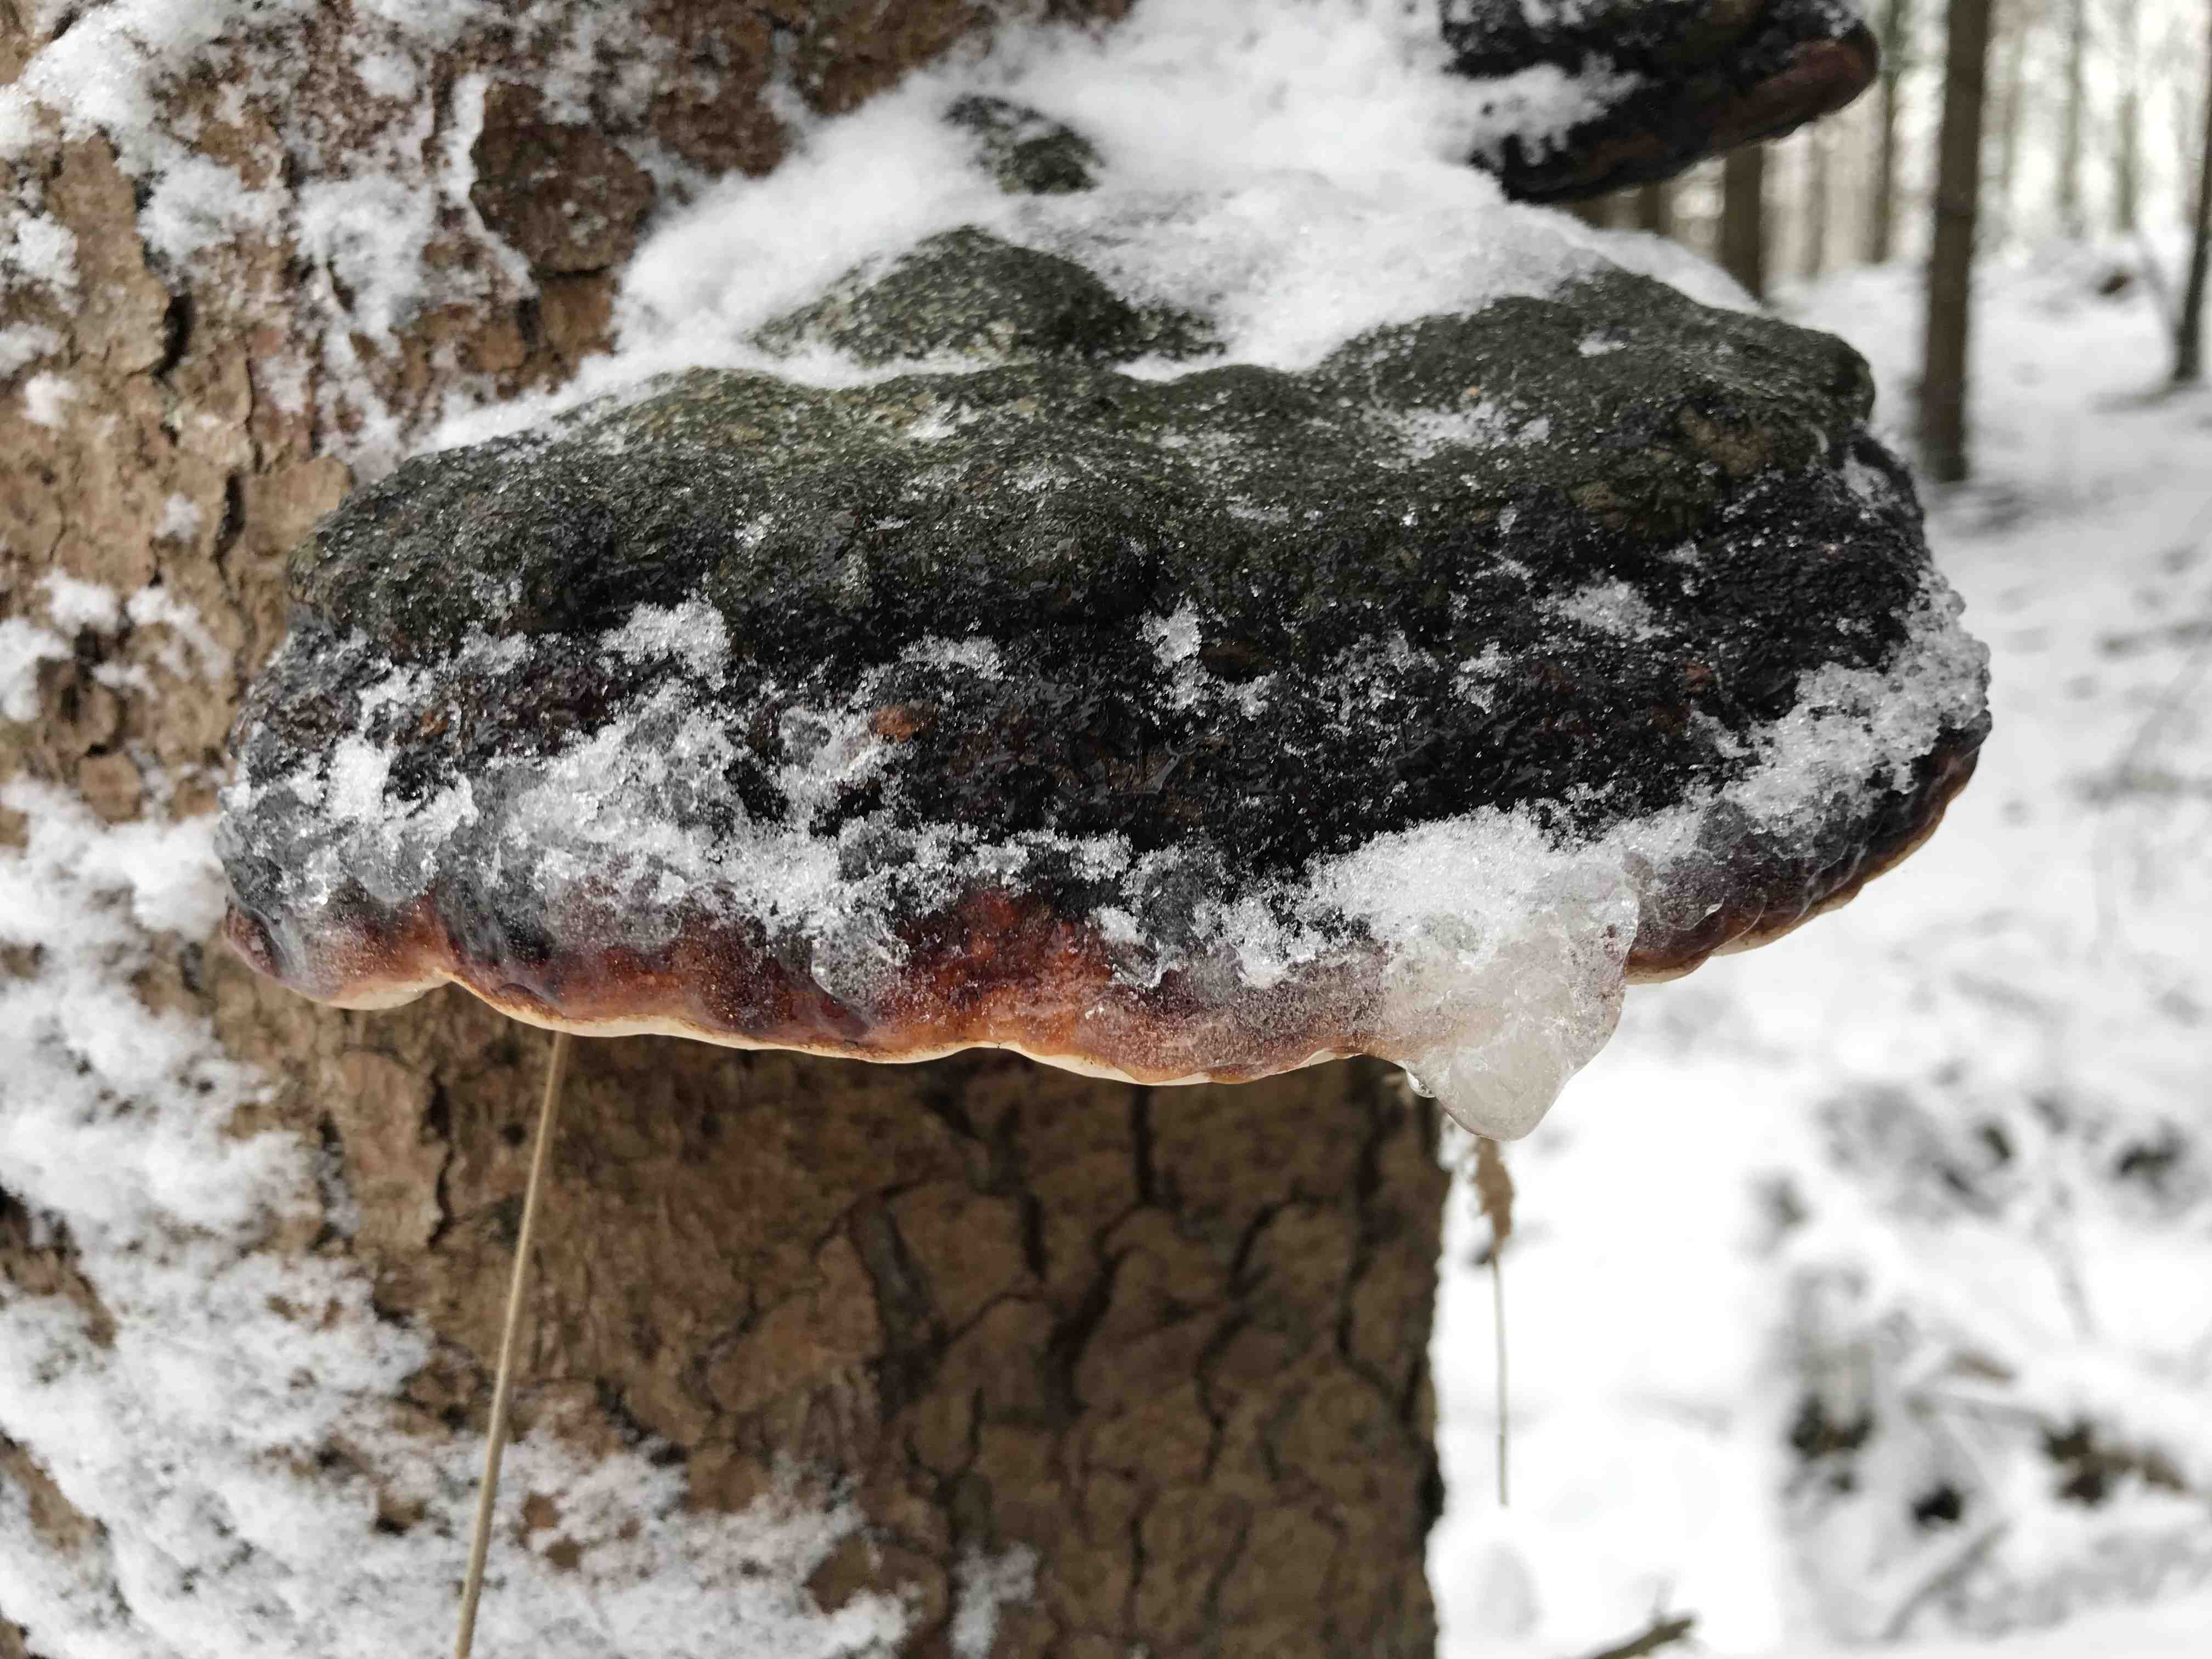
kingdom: Fungi
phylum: Basidiomycota
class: Agaricomycetes
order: Polyporales
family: Fomitopsidaceae
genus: Fomitopsis
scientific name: Fomitopsis pinicola
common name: randbæltet hovporesvamp
